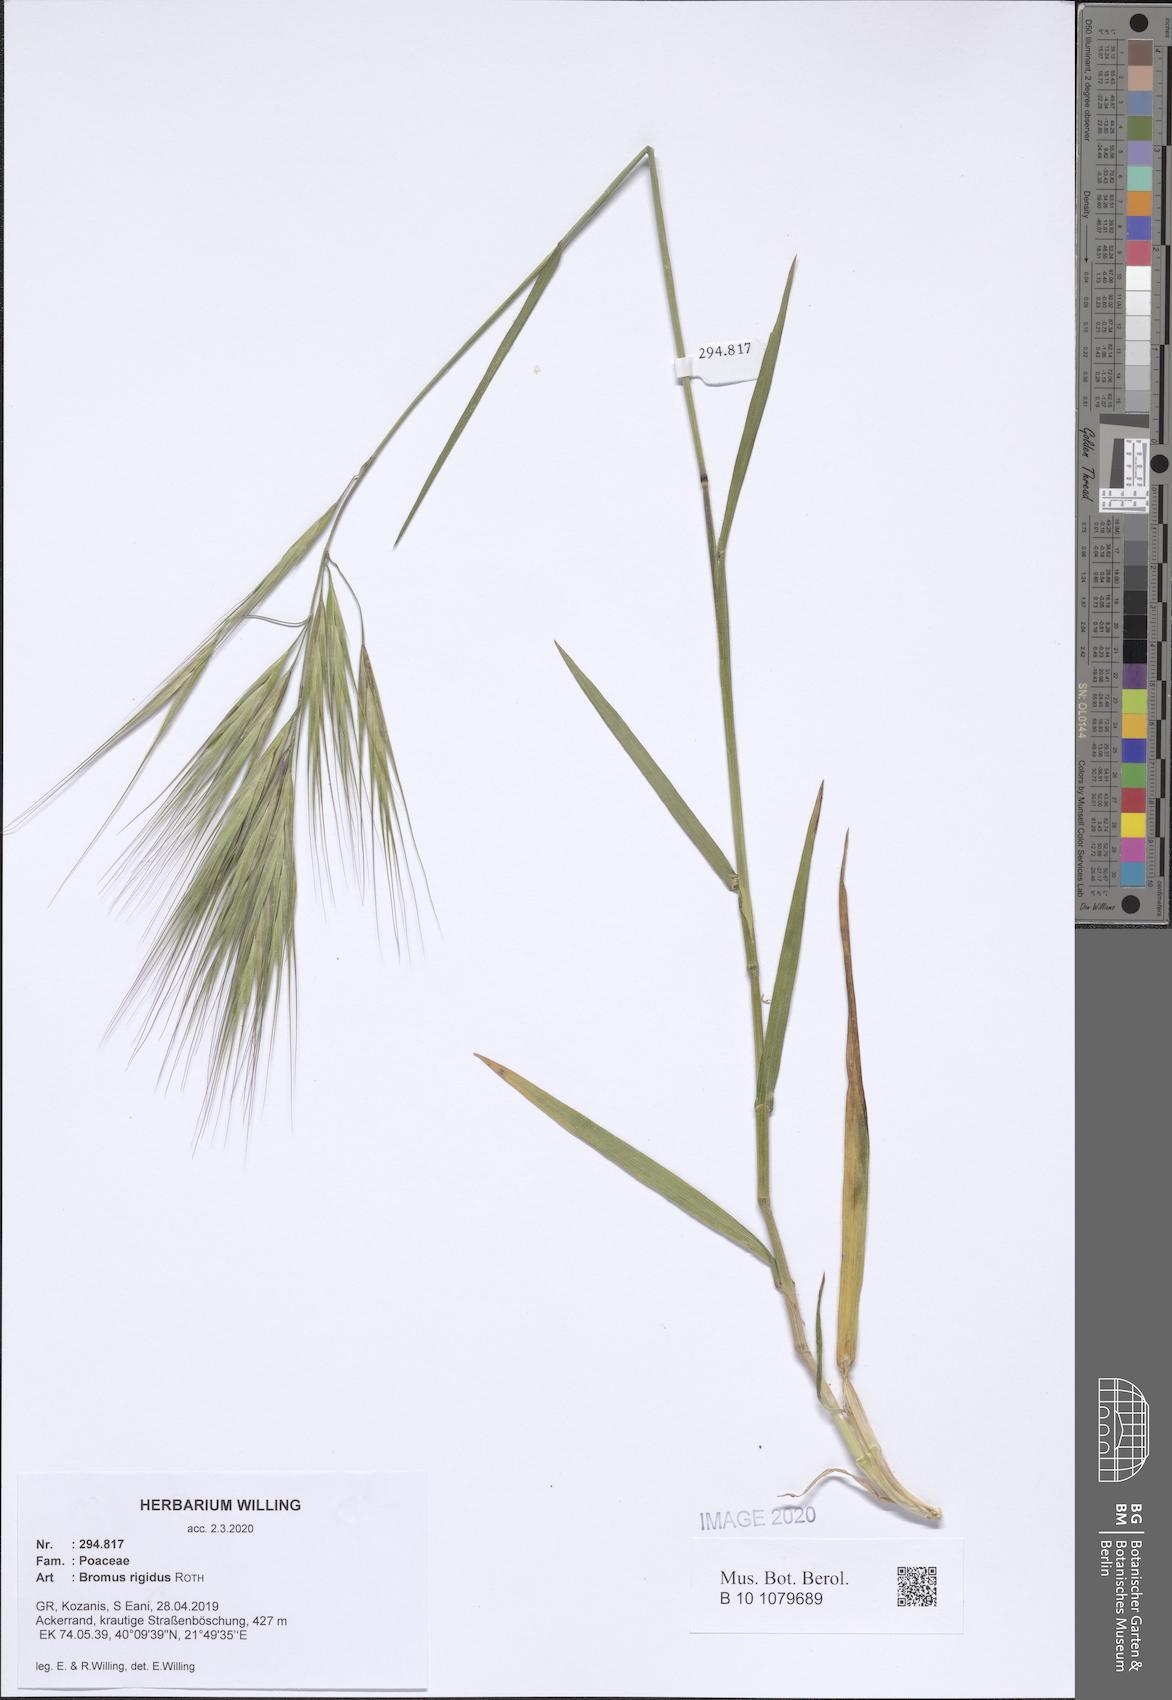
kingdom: Plantae
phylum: Tracheophyta
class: Liliopsida
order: Poales
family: Poaceae
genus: Bromus
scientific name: Bromus rigidus
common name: Ripgut brome
